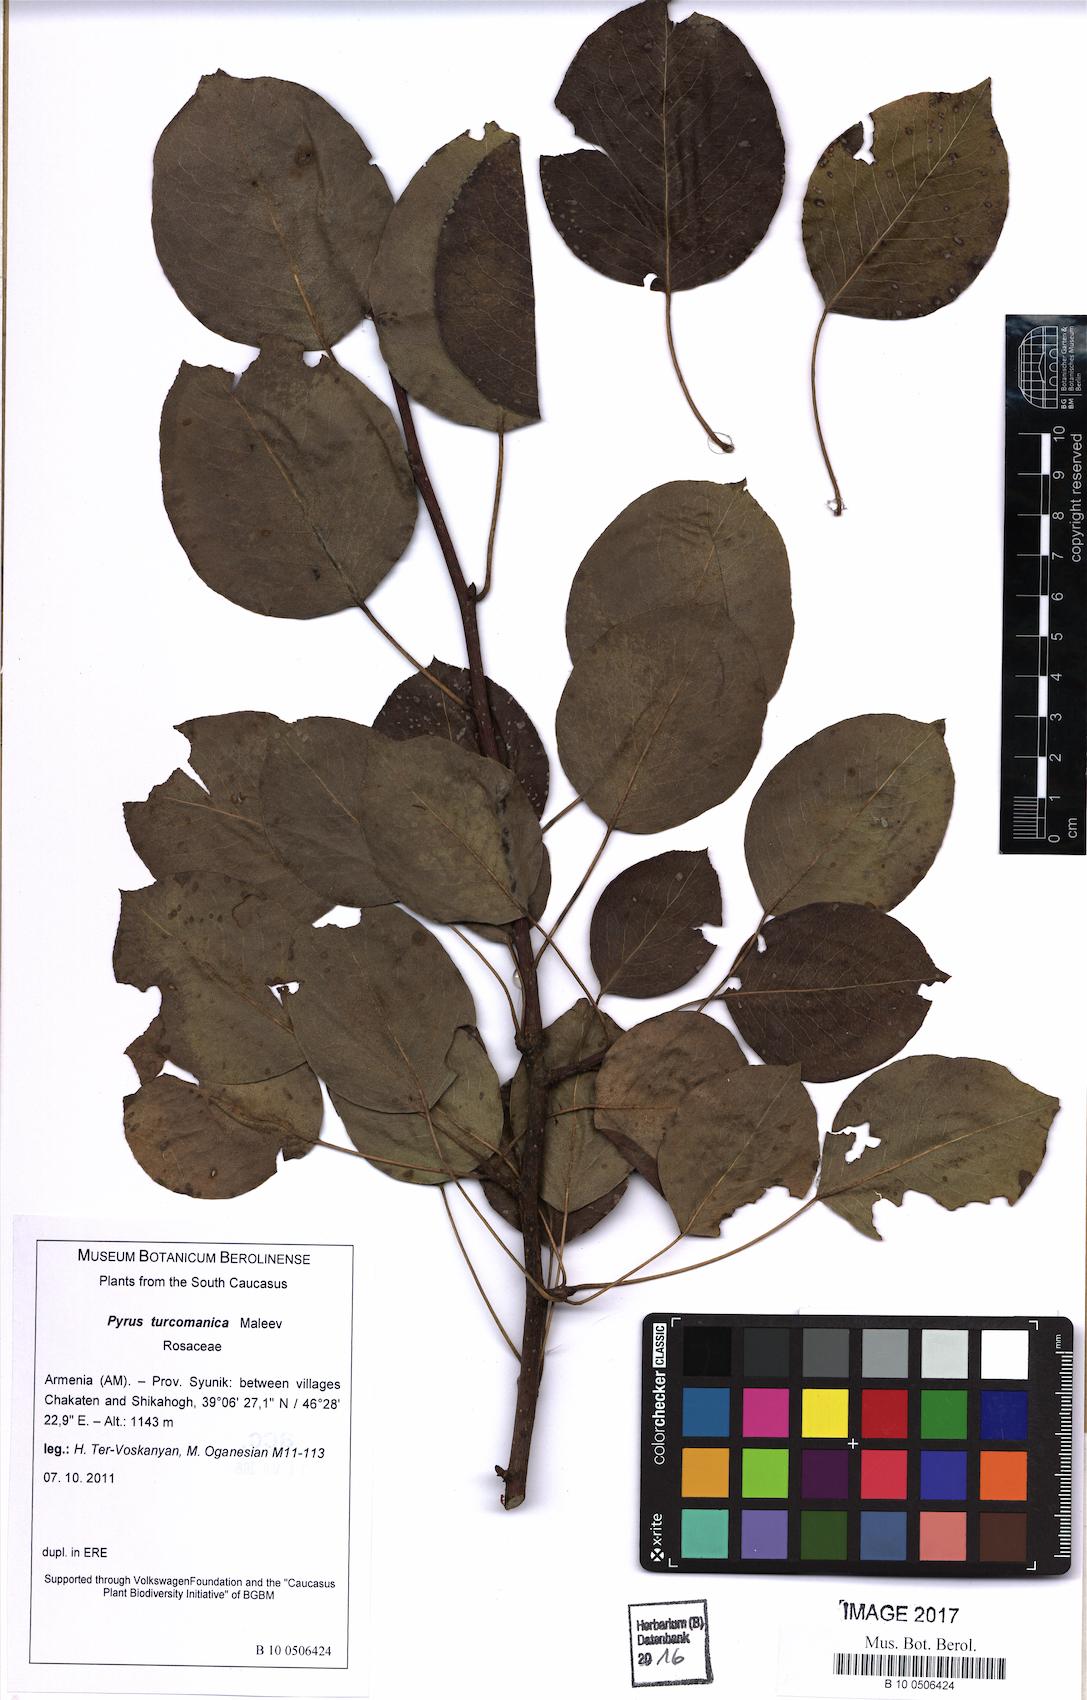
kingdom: Plantae
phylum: Tracheophyta
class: Magnoliopsida
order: Rosales
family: Rosaceae
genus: Pyrus
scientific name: Pyrus turcomanica
